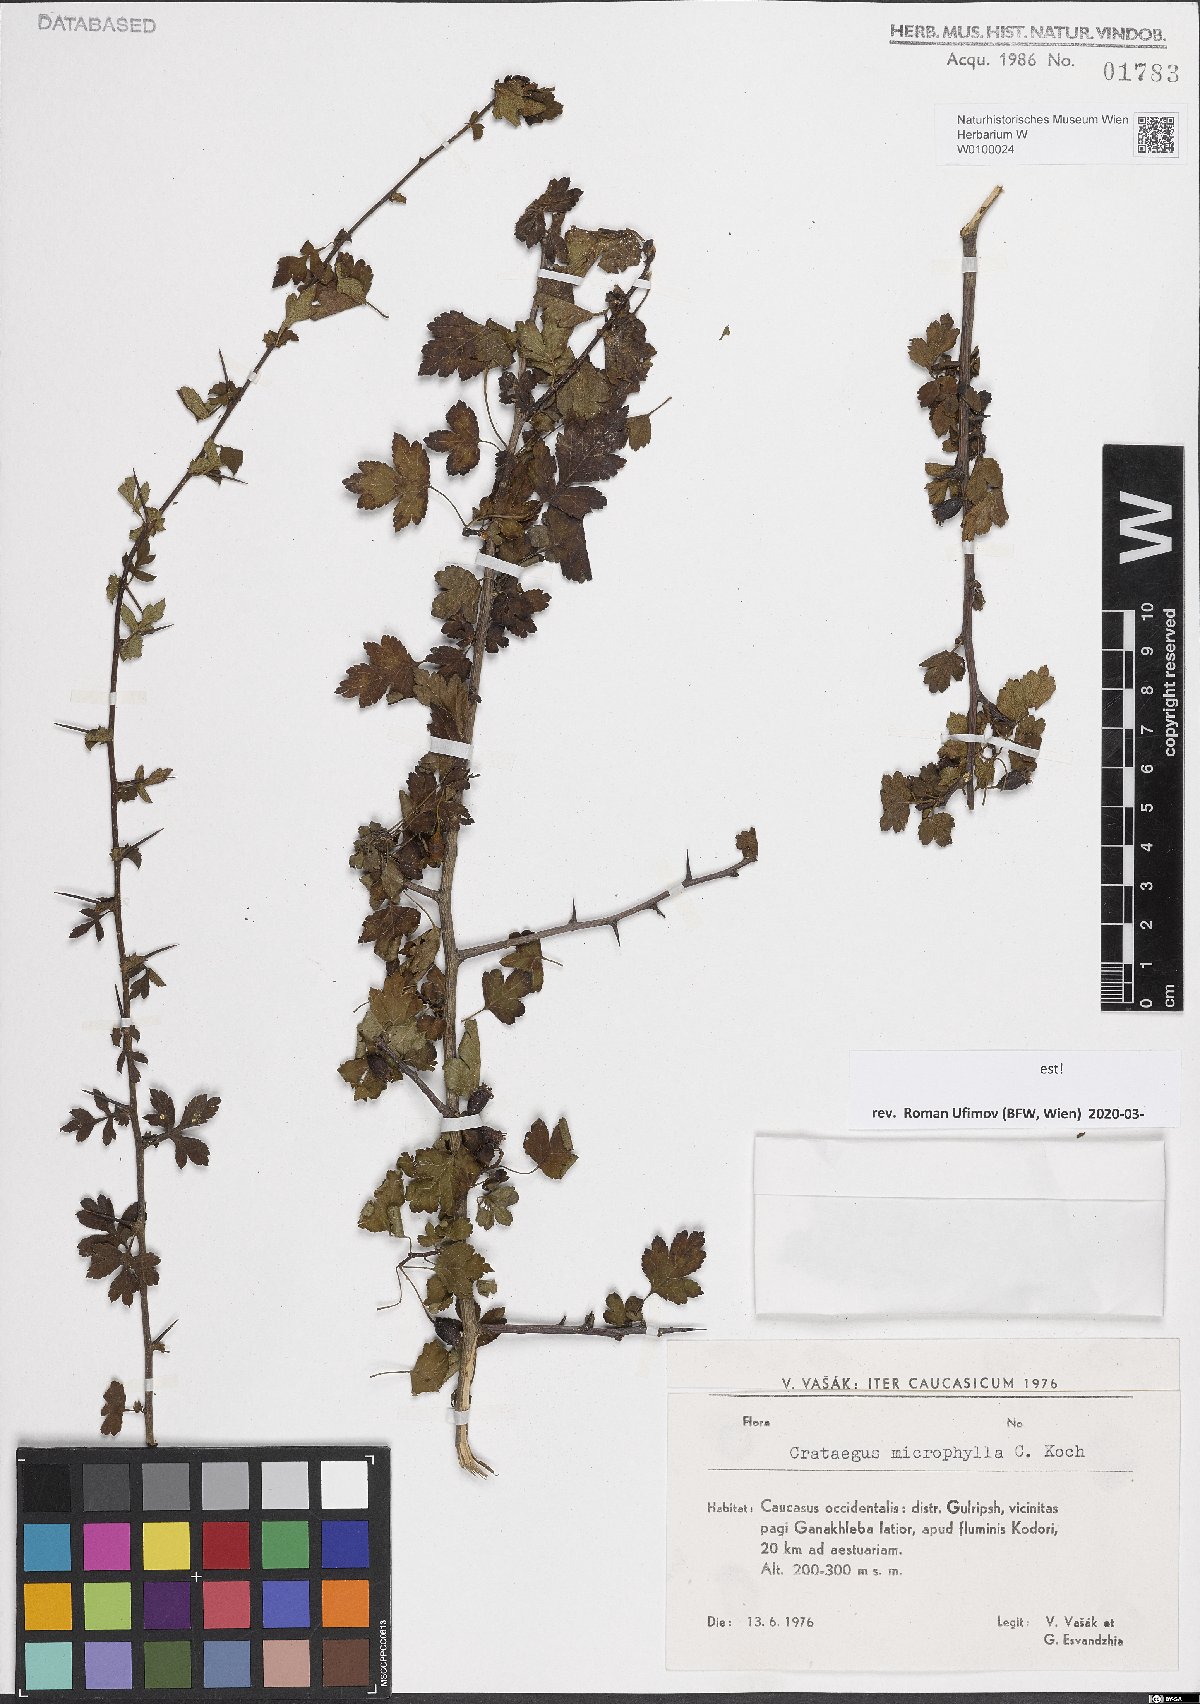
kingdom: Plantae
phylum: Tracheophyta
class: Magnoliopsida
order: Rosales
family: Rosaceae
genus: Crataegus
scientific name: Crataegus microphylla
